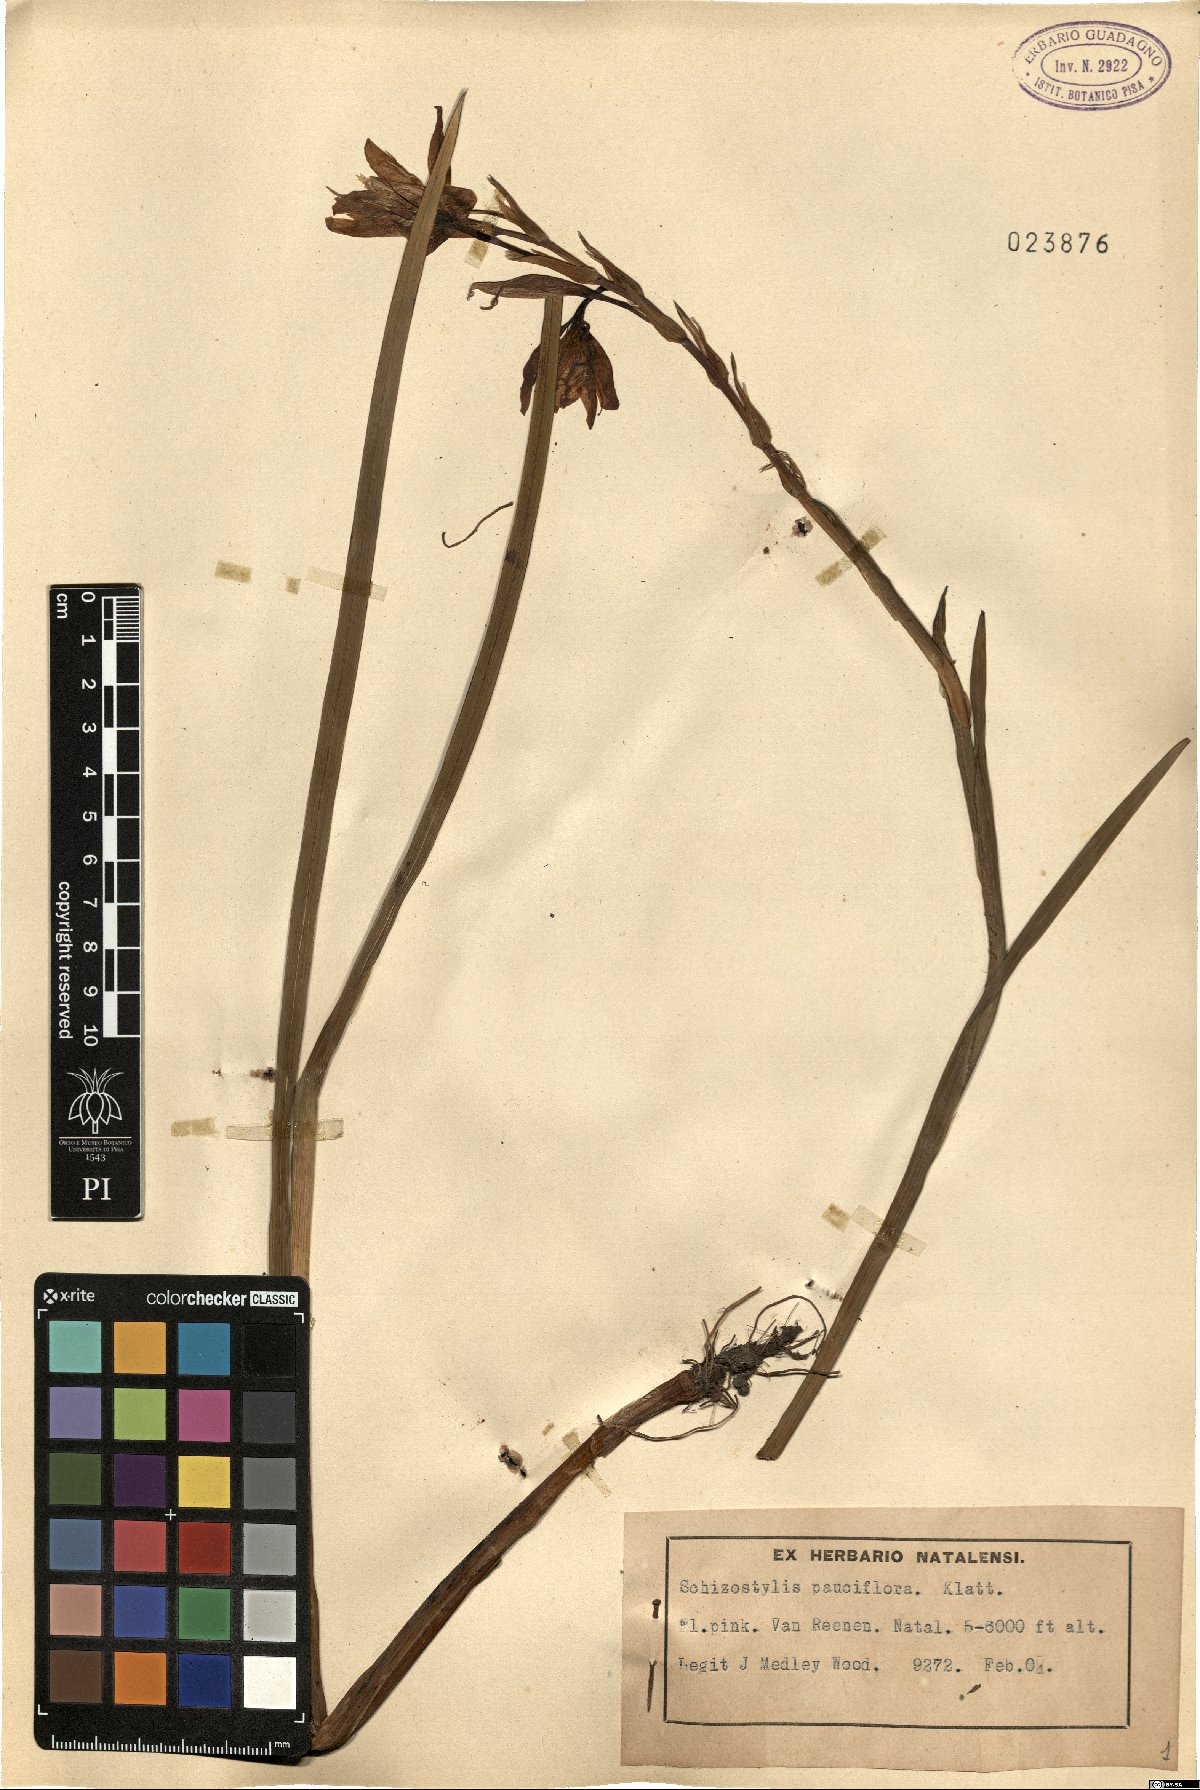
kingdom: Plantae
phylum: Tracheophyta
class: Liliopsida
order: Asparagales
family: Iridaceae
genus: Hesperantha
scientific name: Hesperantha coccinea
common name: River-lily
